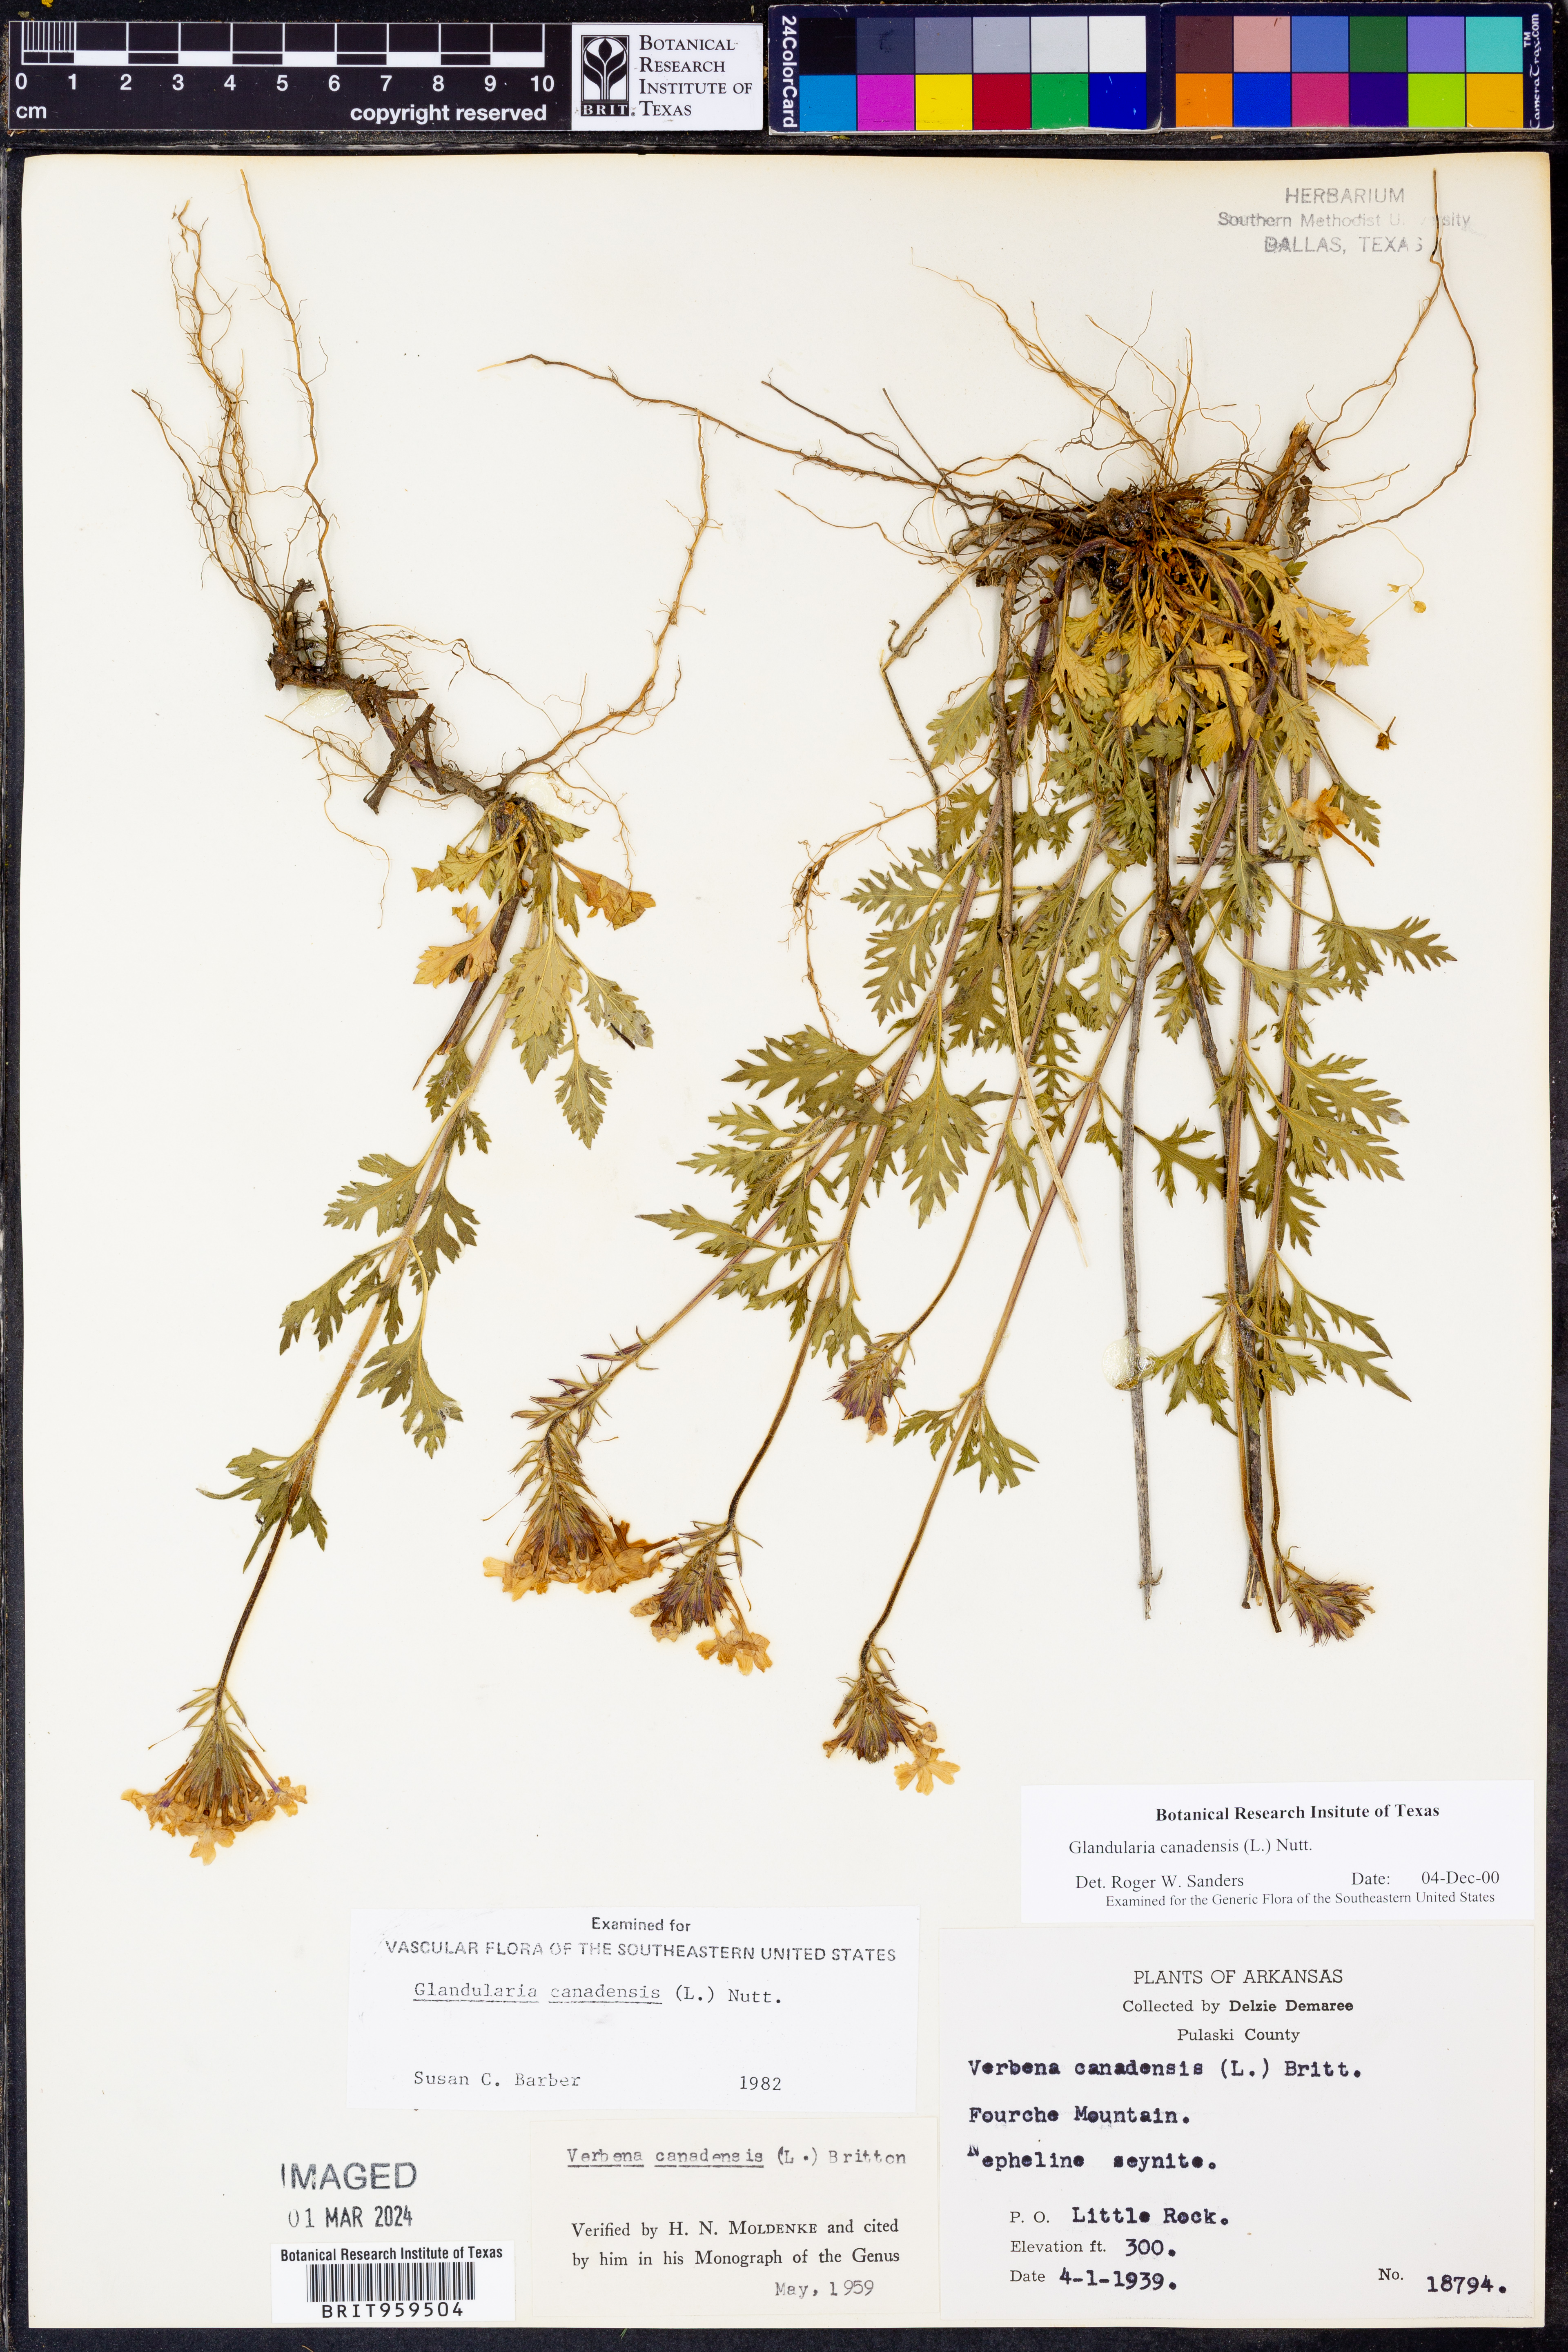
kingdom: Plantae
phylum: Tracheophyta
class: Magnoliopsida
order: Lamiales
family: Verbenaceae
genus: Verbena
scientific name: Verbena canadensis
